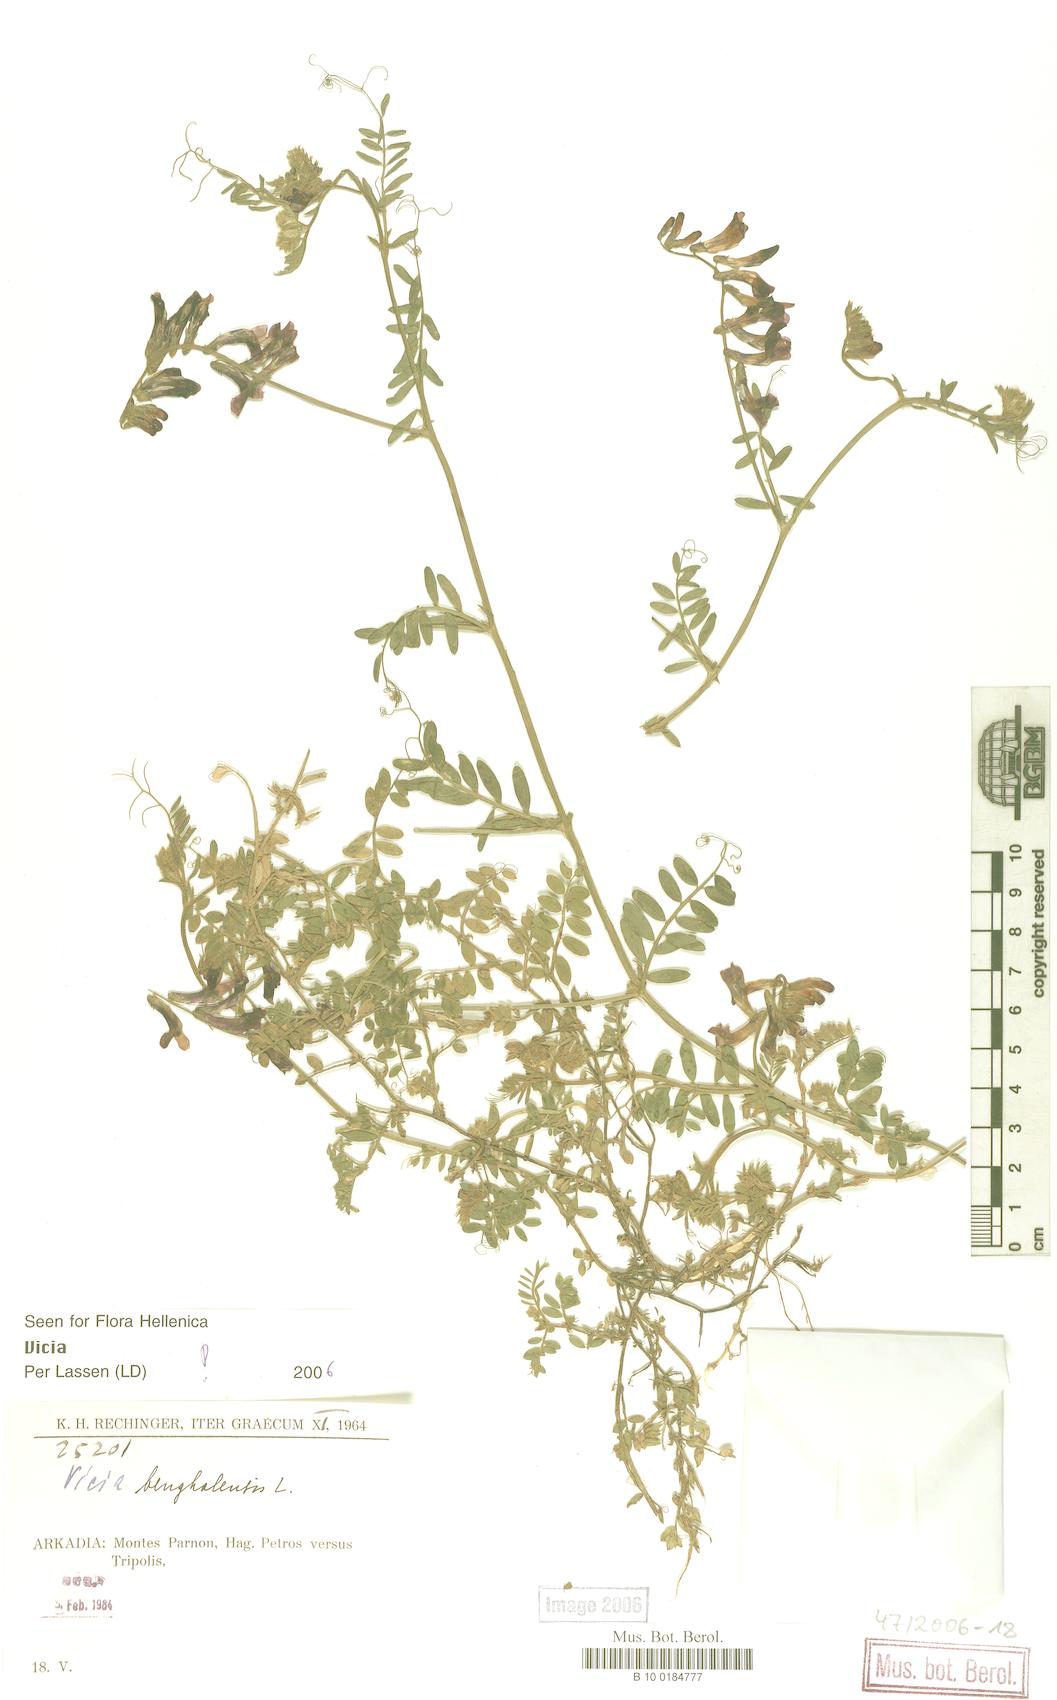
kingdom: Plantae
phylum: Tracheophyta
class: Magnoliopsida
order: Fabales
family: Fabaceae
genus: Vicia
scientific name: Vicia
